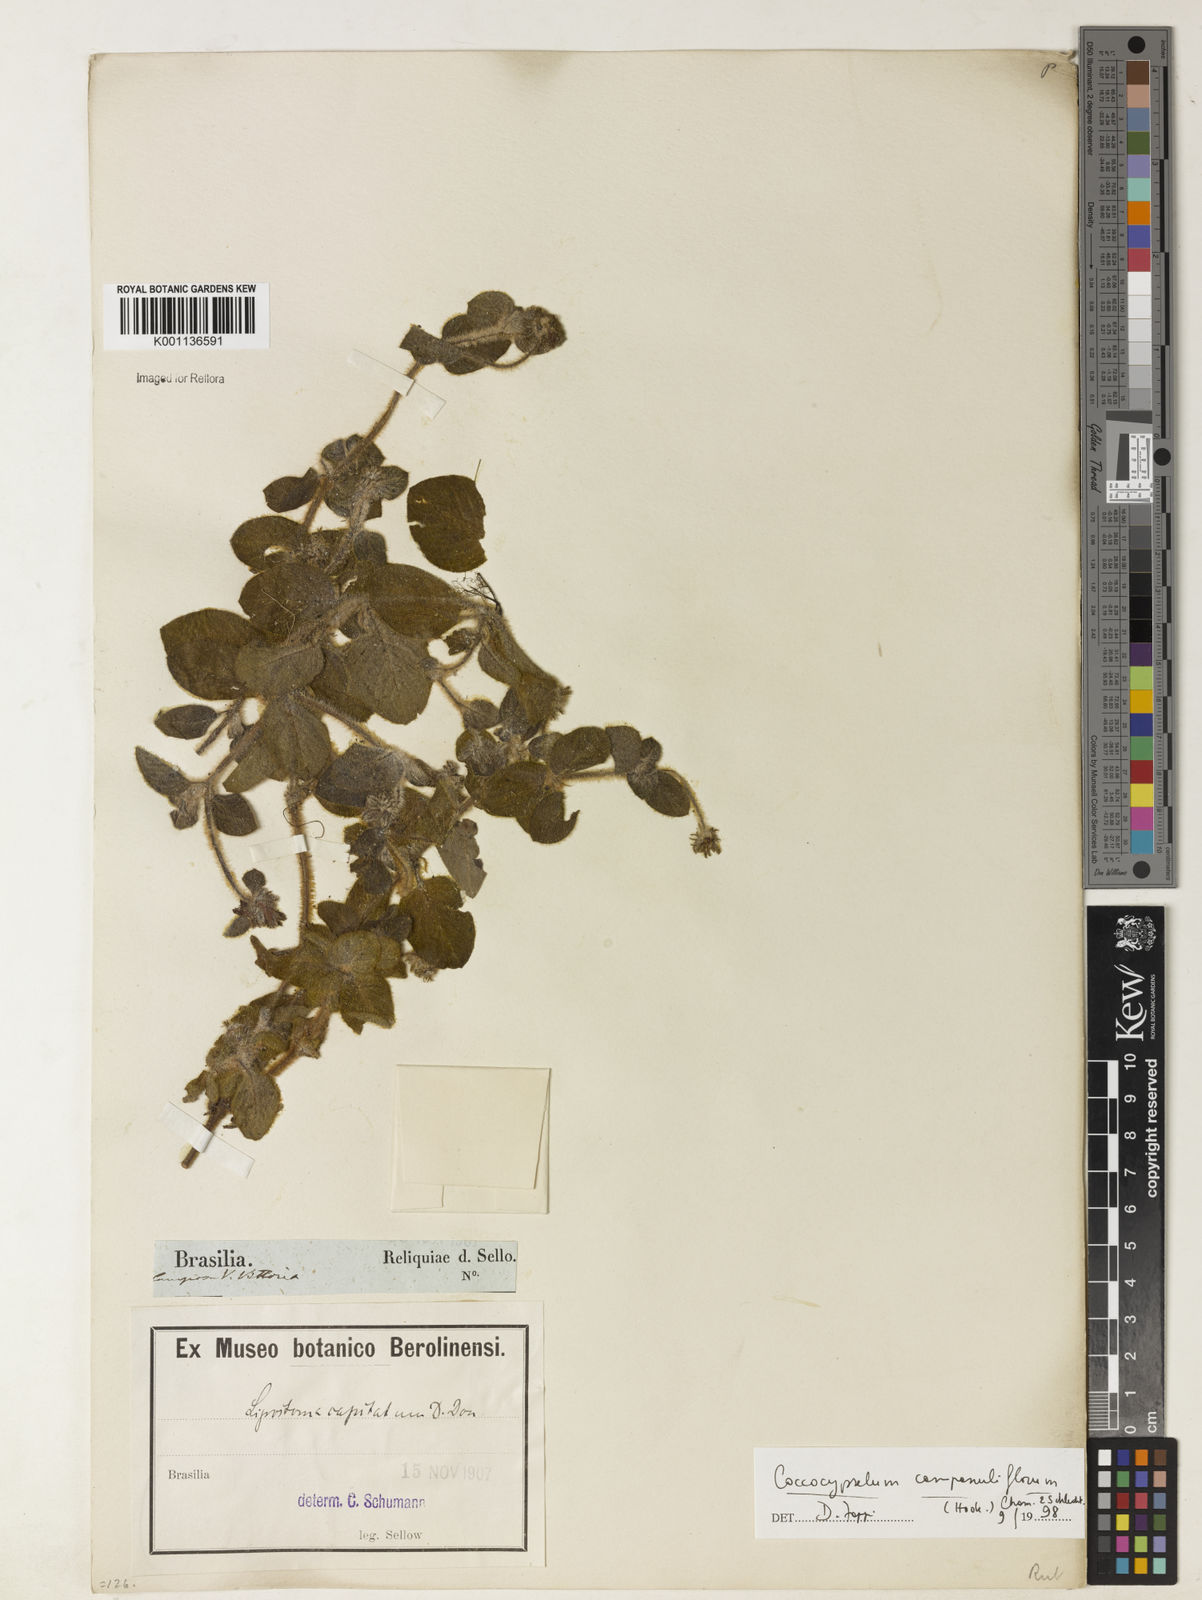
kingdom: Plantae
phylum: Tracheophyta
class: Magnoliopsida
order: Gentianales
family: Rubiaceae
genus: Coccocypselum
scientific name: Coccocypselum capitatum
